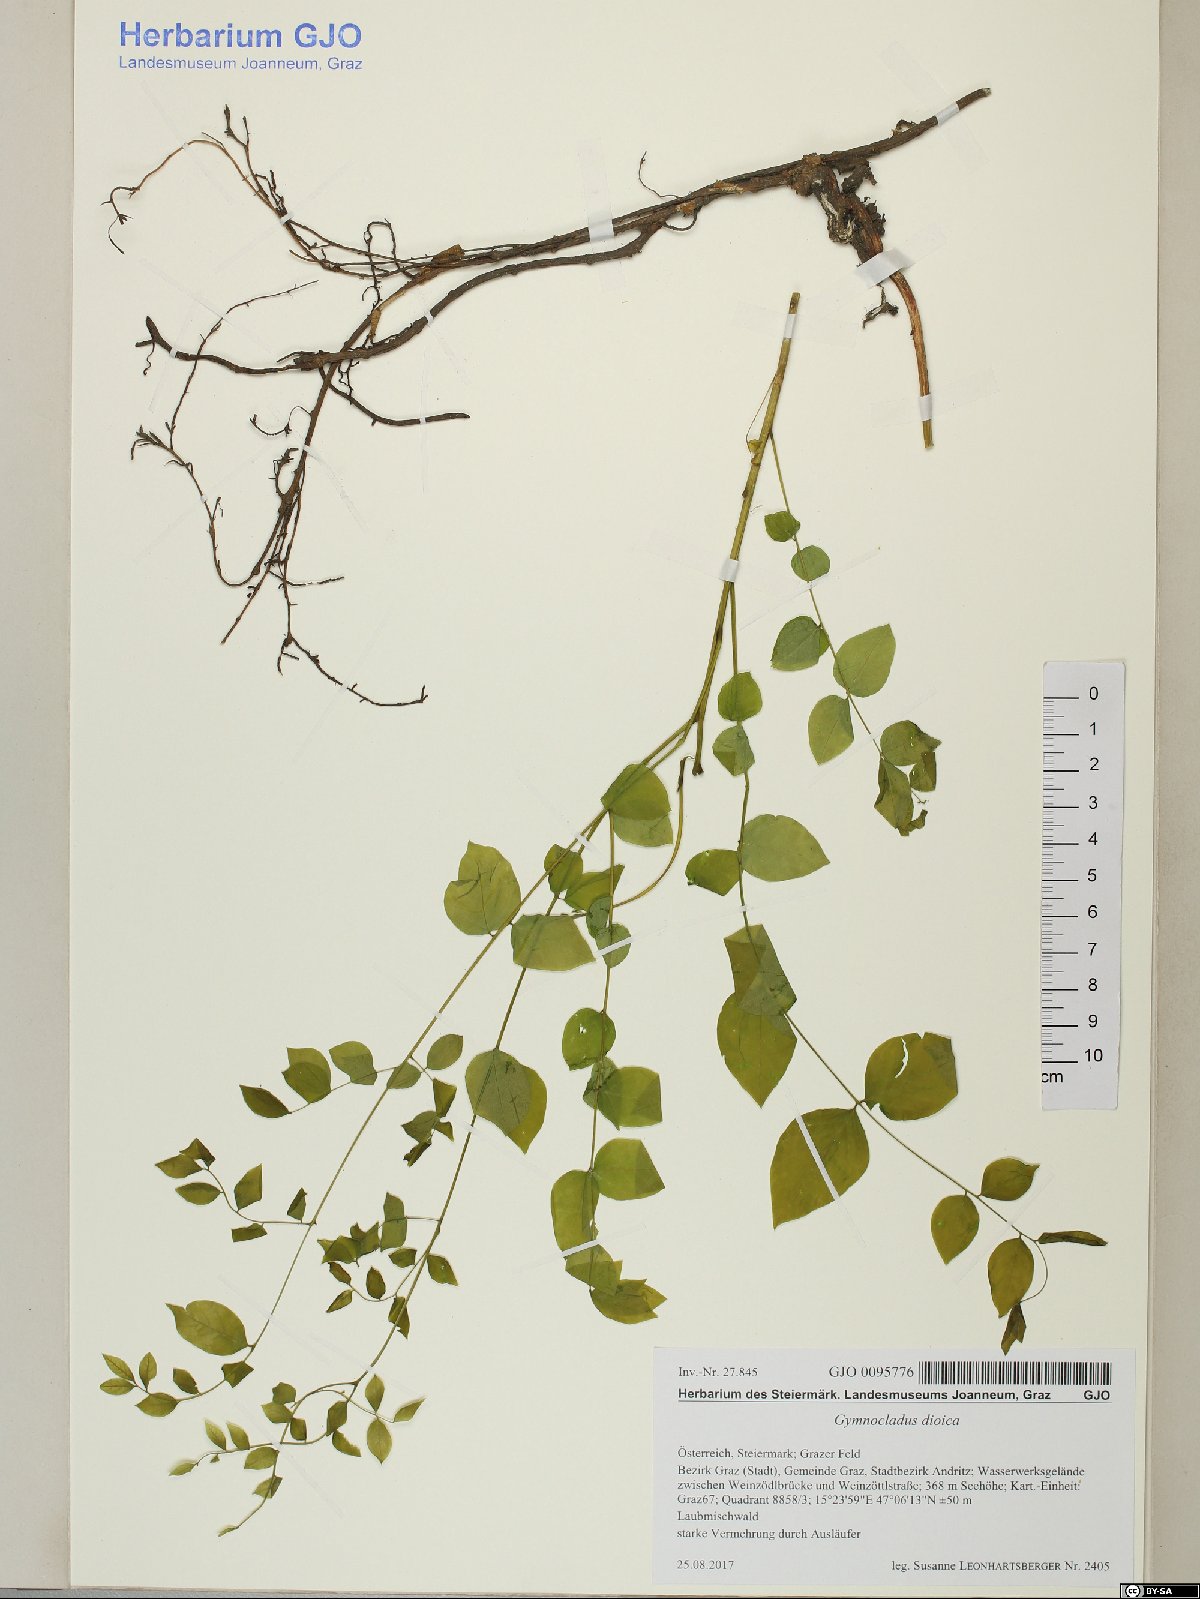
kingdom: Plantae
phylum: Tracheophyta
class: Magnoliopsida
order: Fabales
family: Fabaceae
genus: Gymnocladus
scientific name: Gymnocladus dioicus
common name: Kentucky coffee-tree
